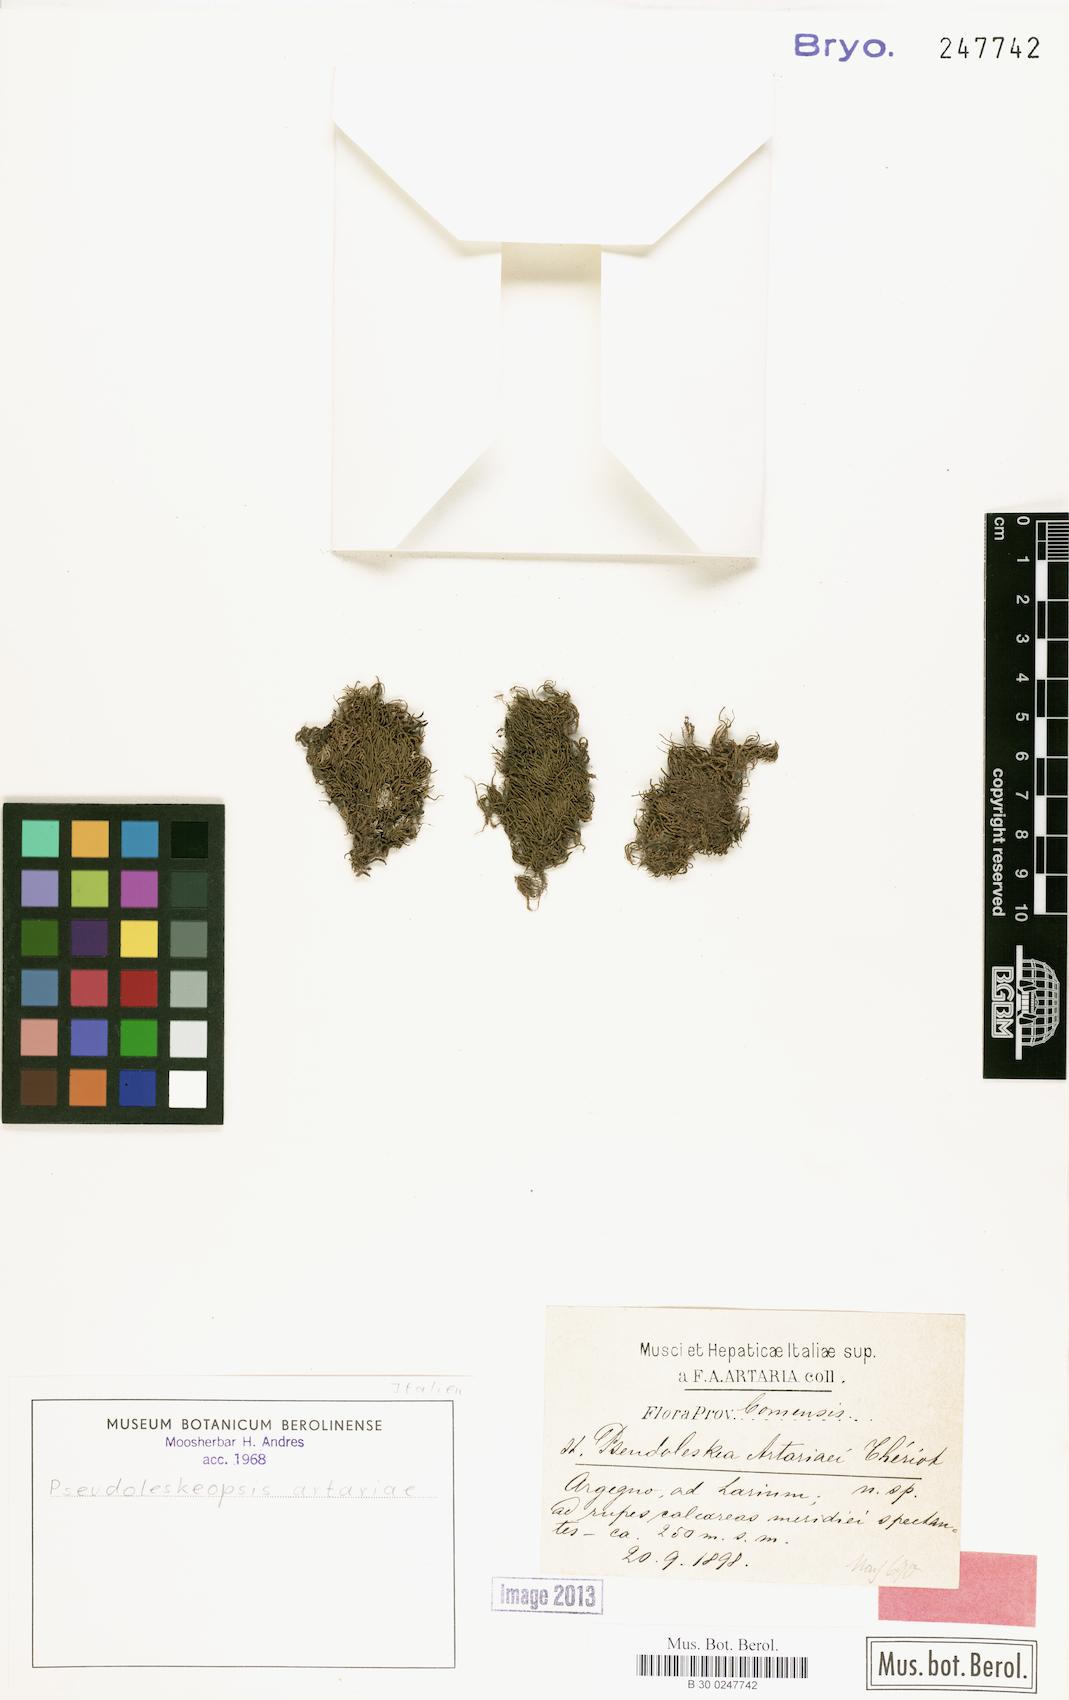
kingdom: Plantae
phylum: Bryophyta
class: Bryopsida
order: Hypnales
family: Leskeaceae
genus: Pseudoleskeopsis
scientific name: Pseudoleskeopsis artariae
